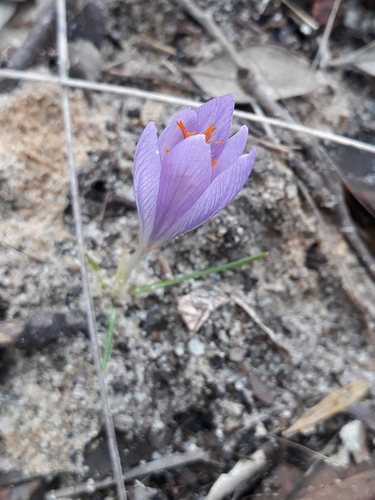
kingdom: Plantae
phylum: Tracheophyta
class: Liliopsida
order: Asparagales
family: Iridaceae
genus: Crocus
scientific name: Crocus serotinus
